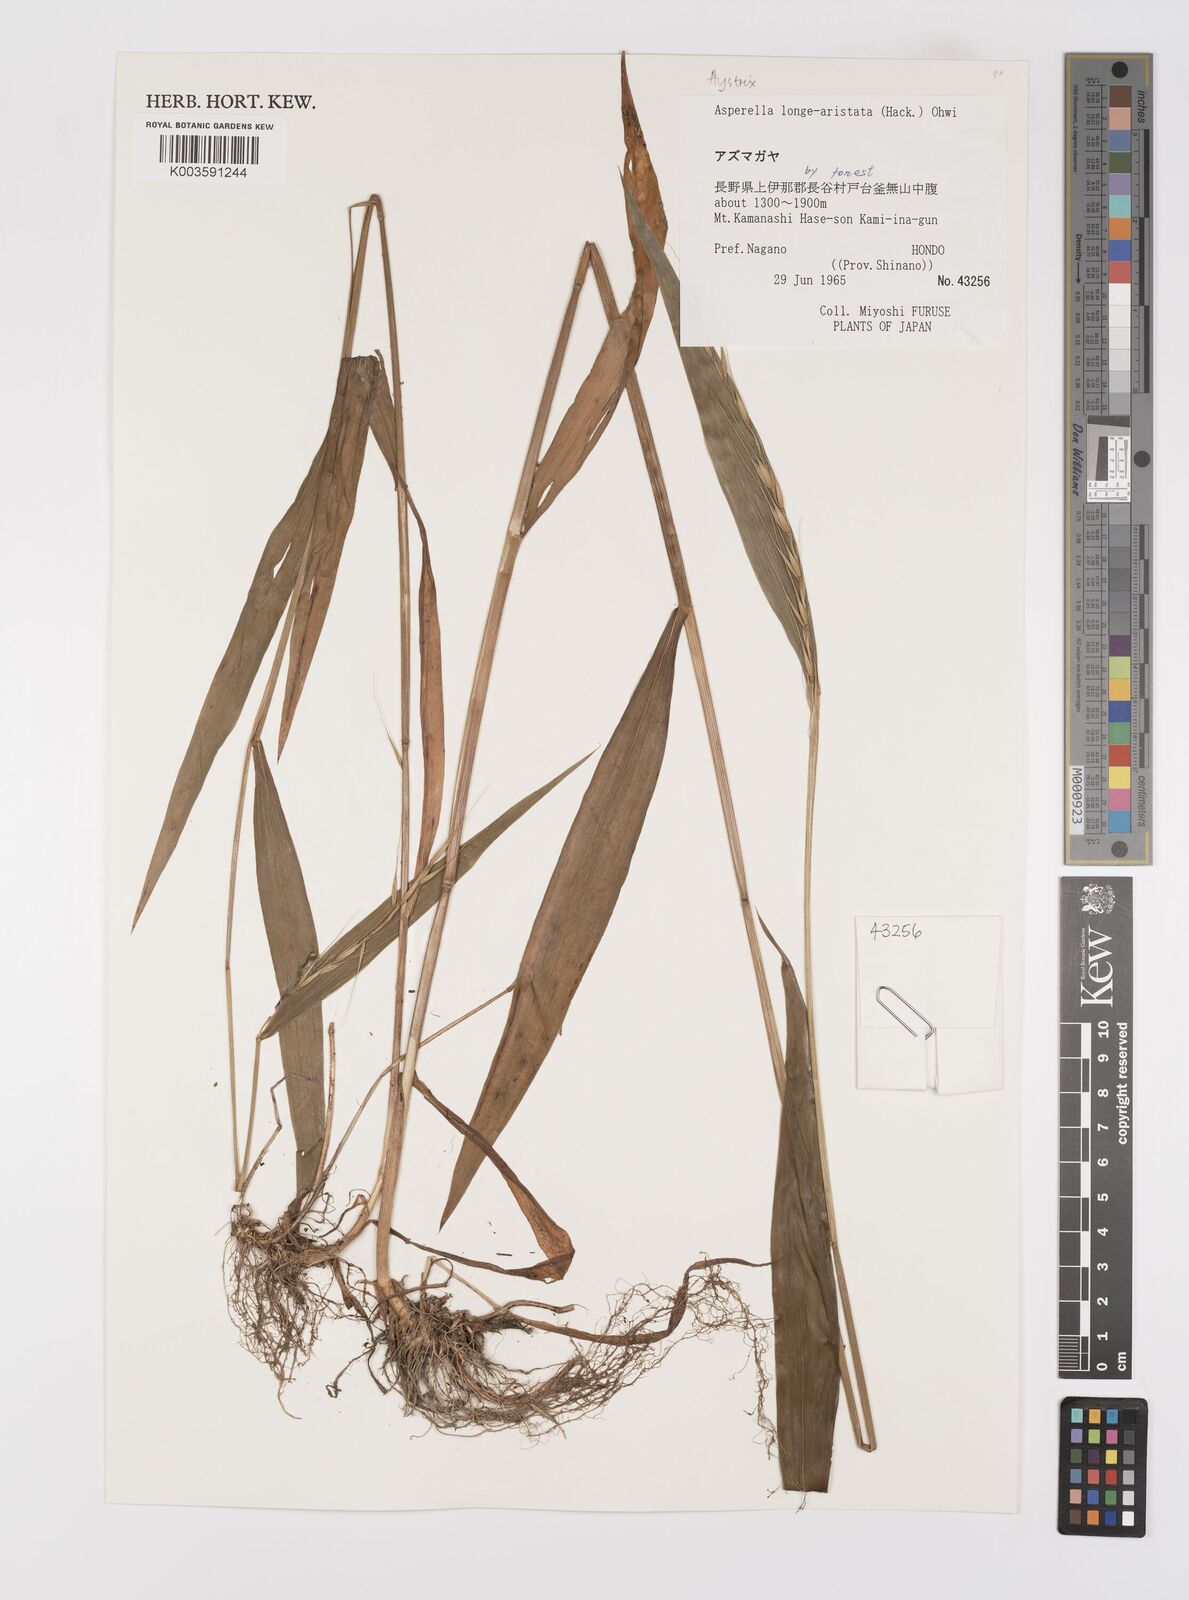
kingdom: Plantae
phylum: Tracheophyta
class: Liliopsida
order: Poales
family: Poaceae
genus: Leymus
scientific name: Leymus duthiei
